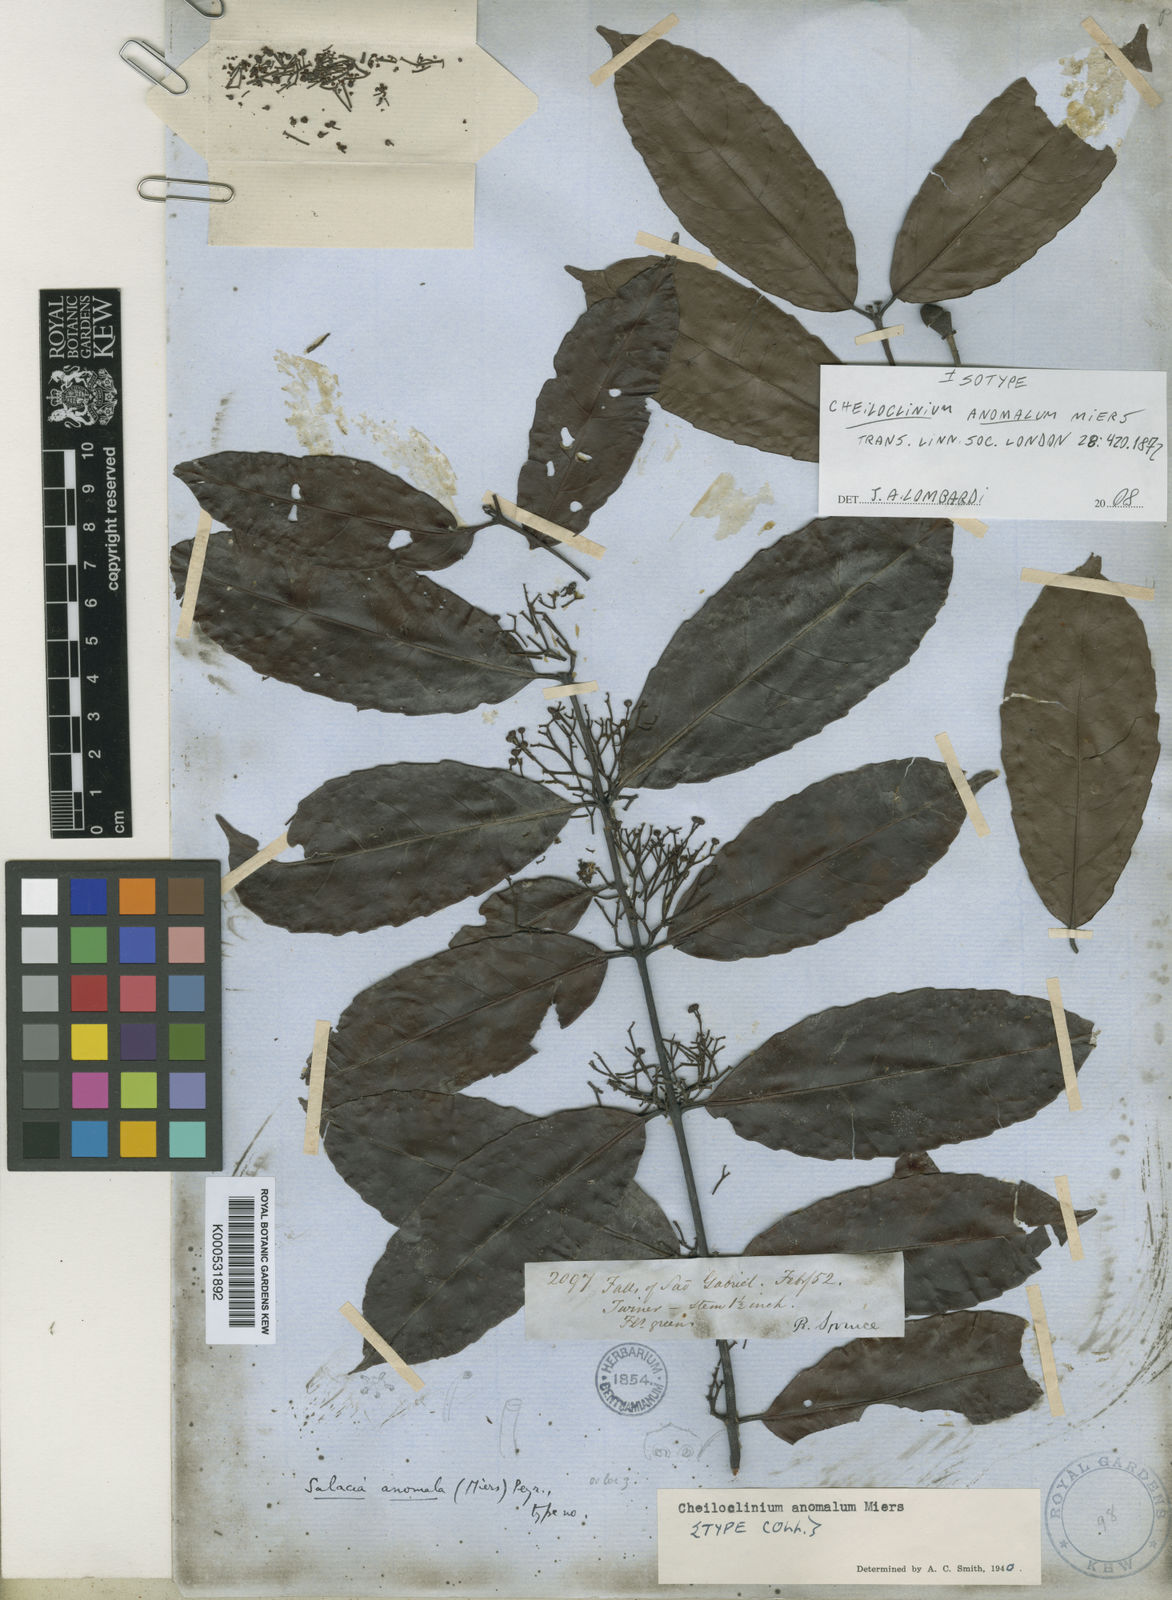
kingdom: Plantae
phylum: Tracheophyta
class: Magnoliopsida
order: Celastrales
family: Celastraceae
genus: Cheiloclinium
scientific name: Cheiloclinium anomalum
